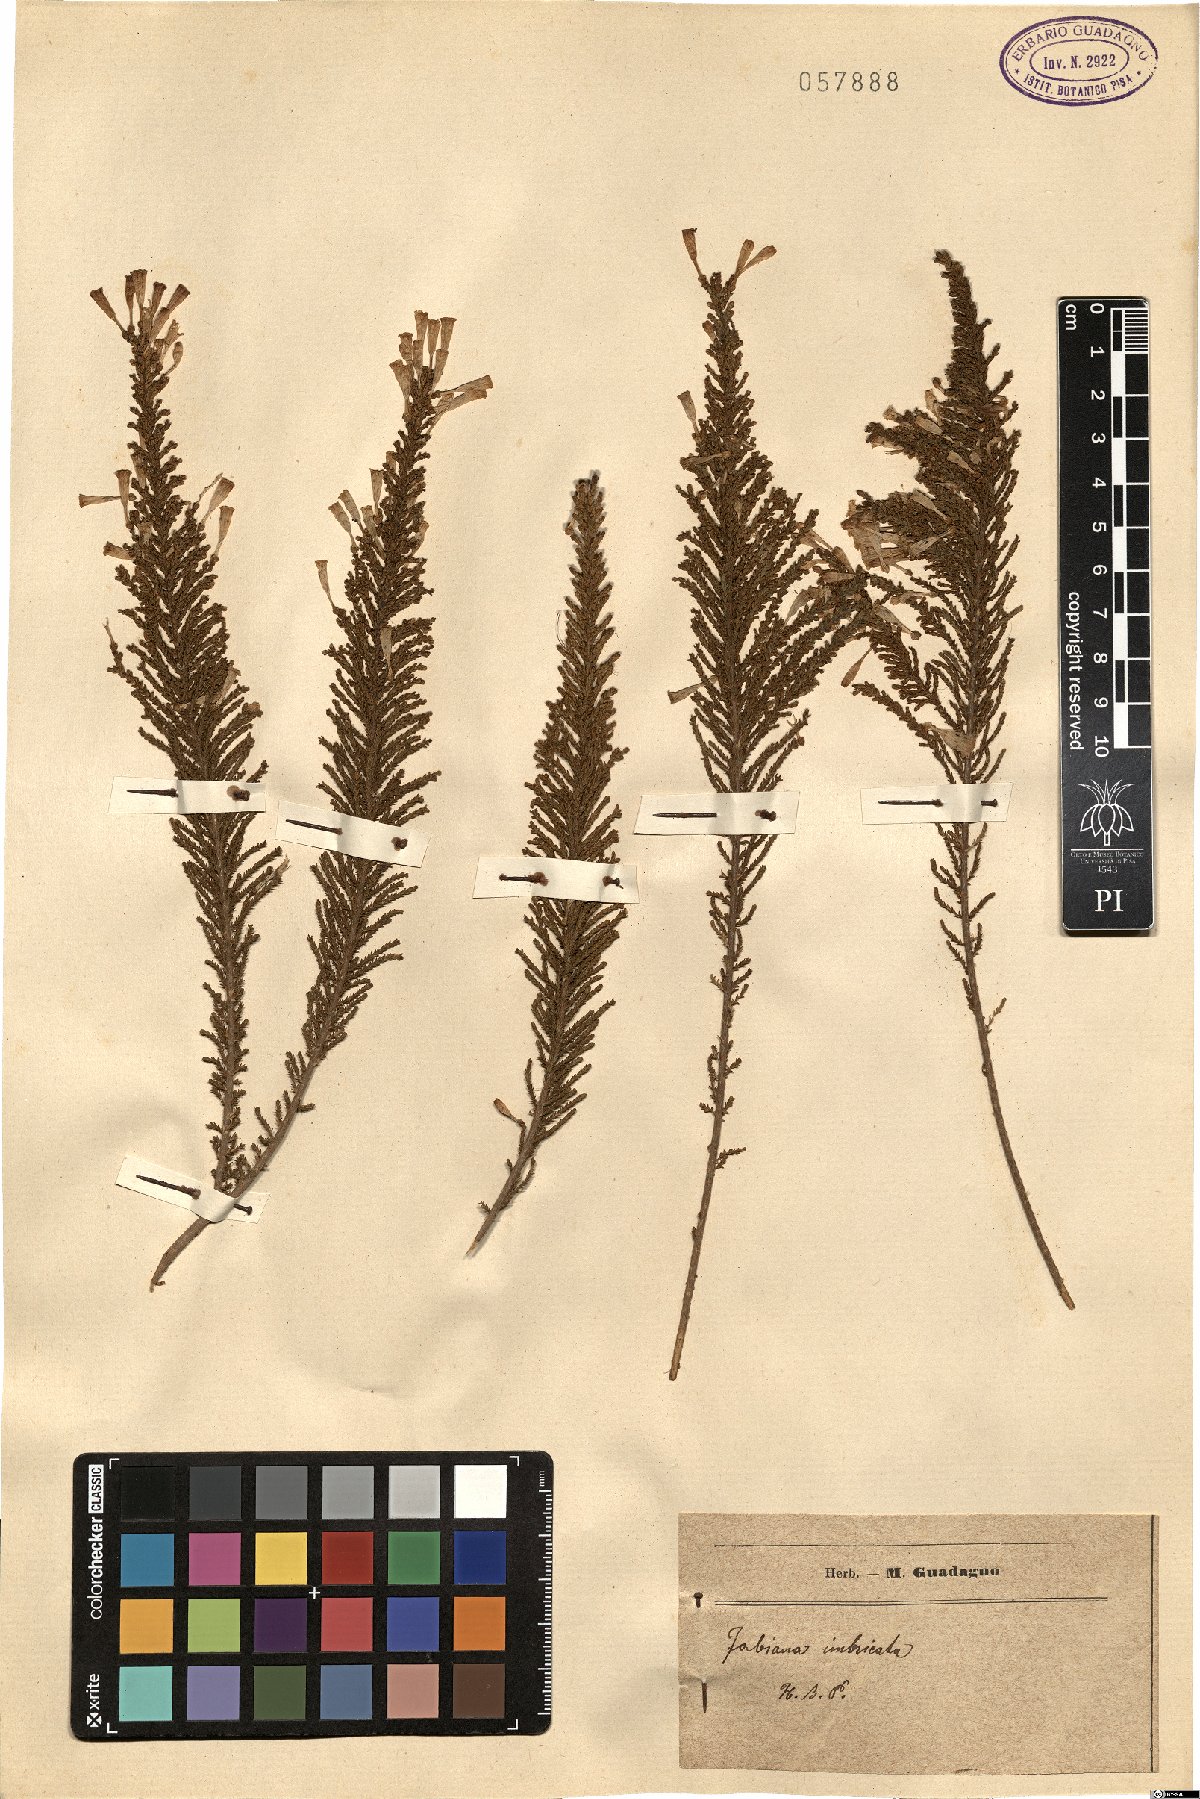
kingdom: Plantae
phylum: Tracheophyta
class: Magnoliopsida
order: Solanales
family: Solanaceae
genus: Fabiana
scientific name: Fabiana imbricata
